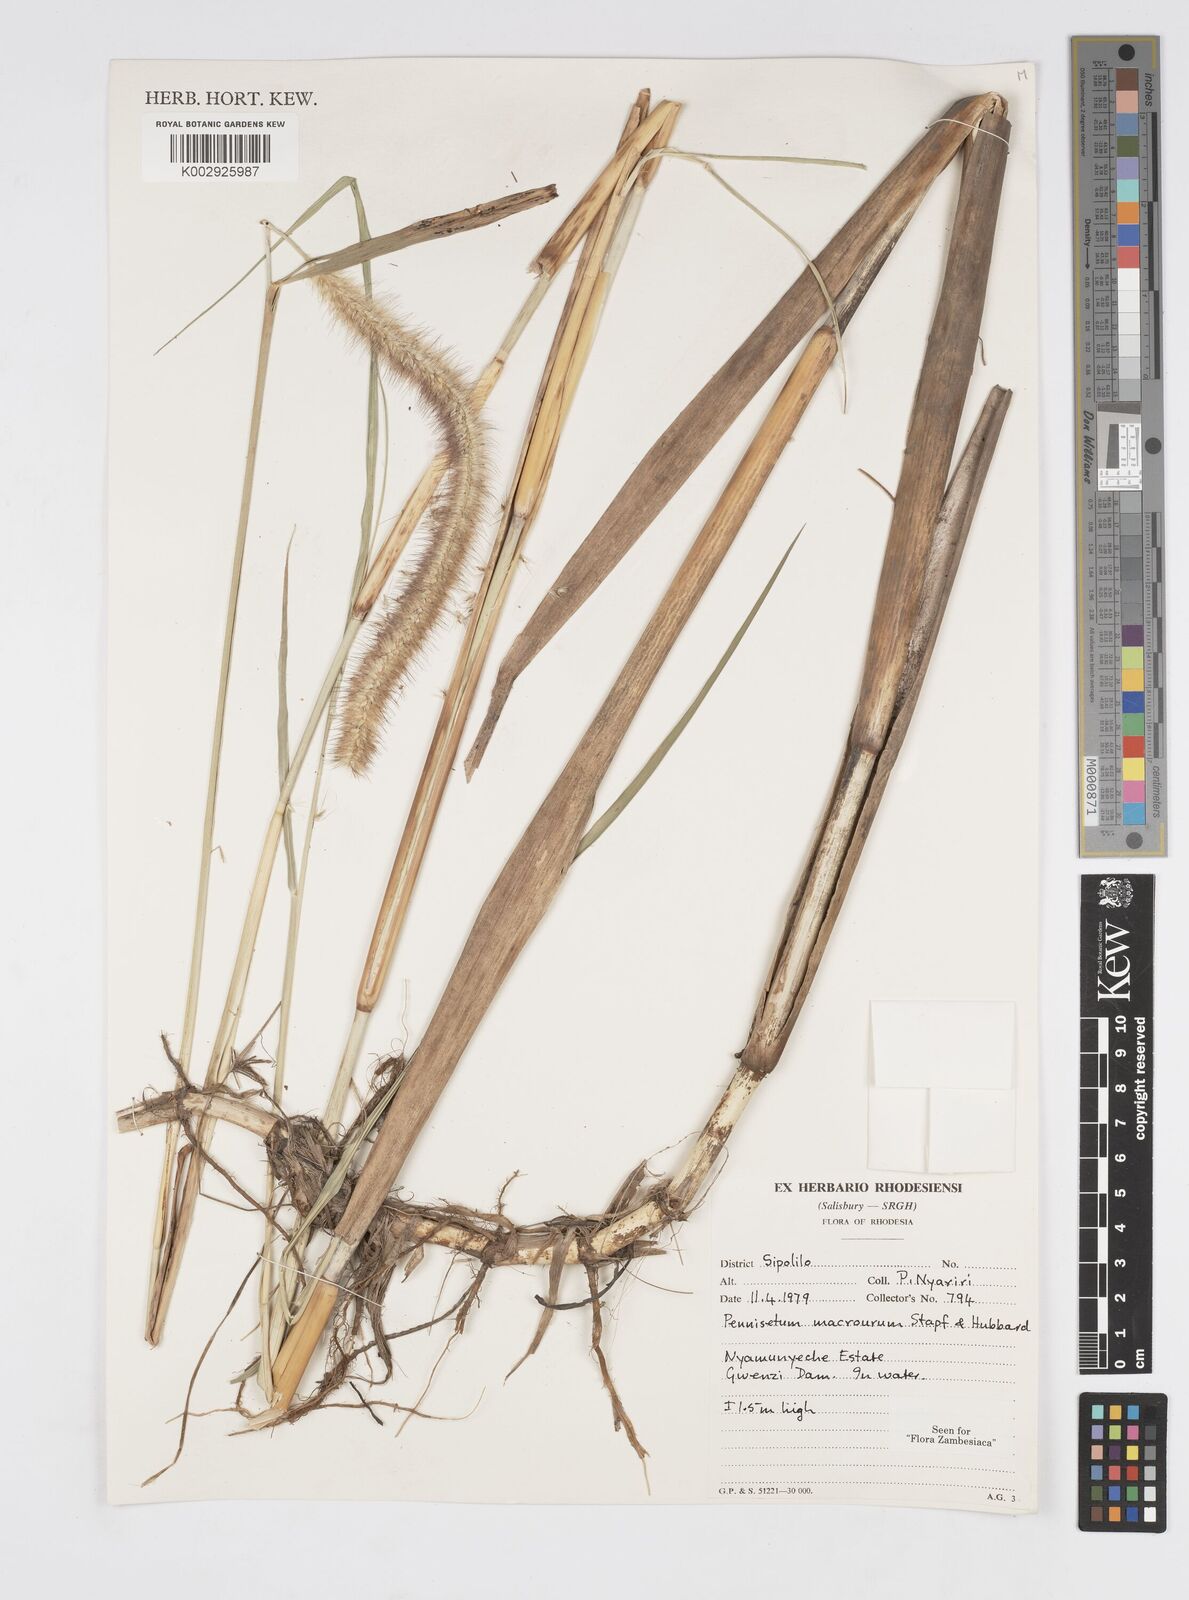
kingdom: Plantae
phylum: Tracheophyta
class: Liliopsida
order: Poales
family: Poaceae
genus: Cenchrus
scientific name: Cenchrus caudatus
